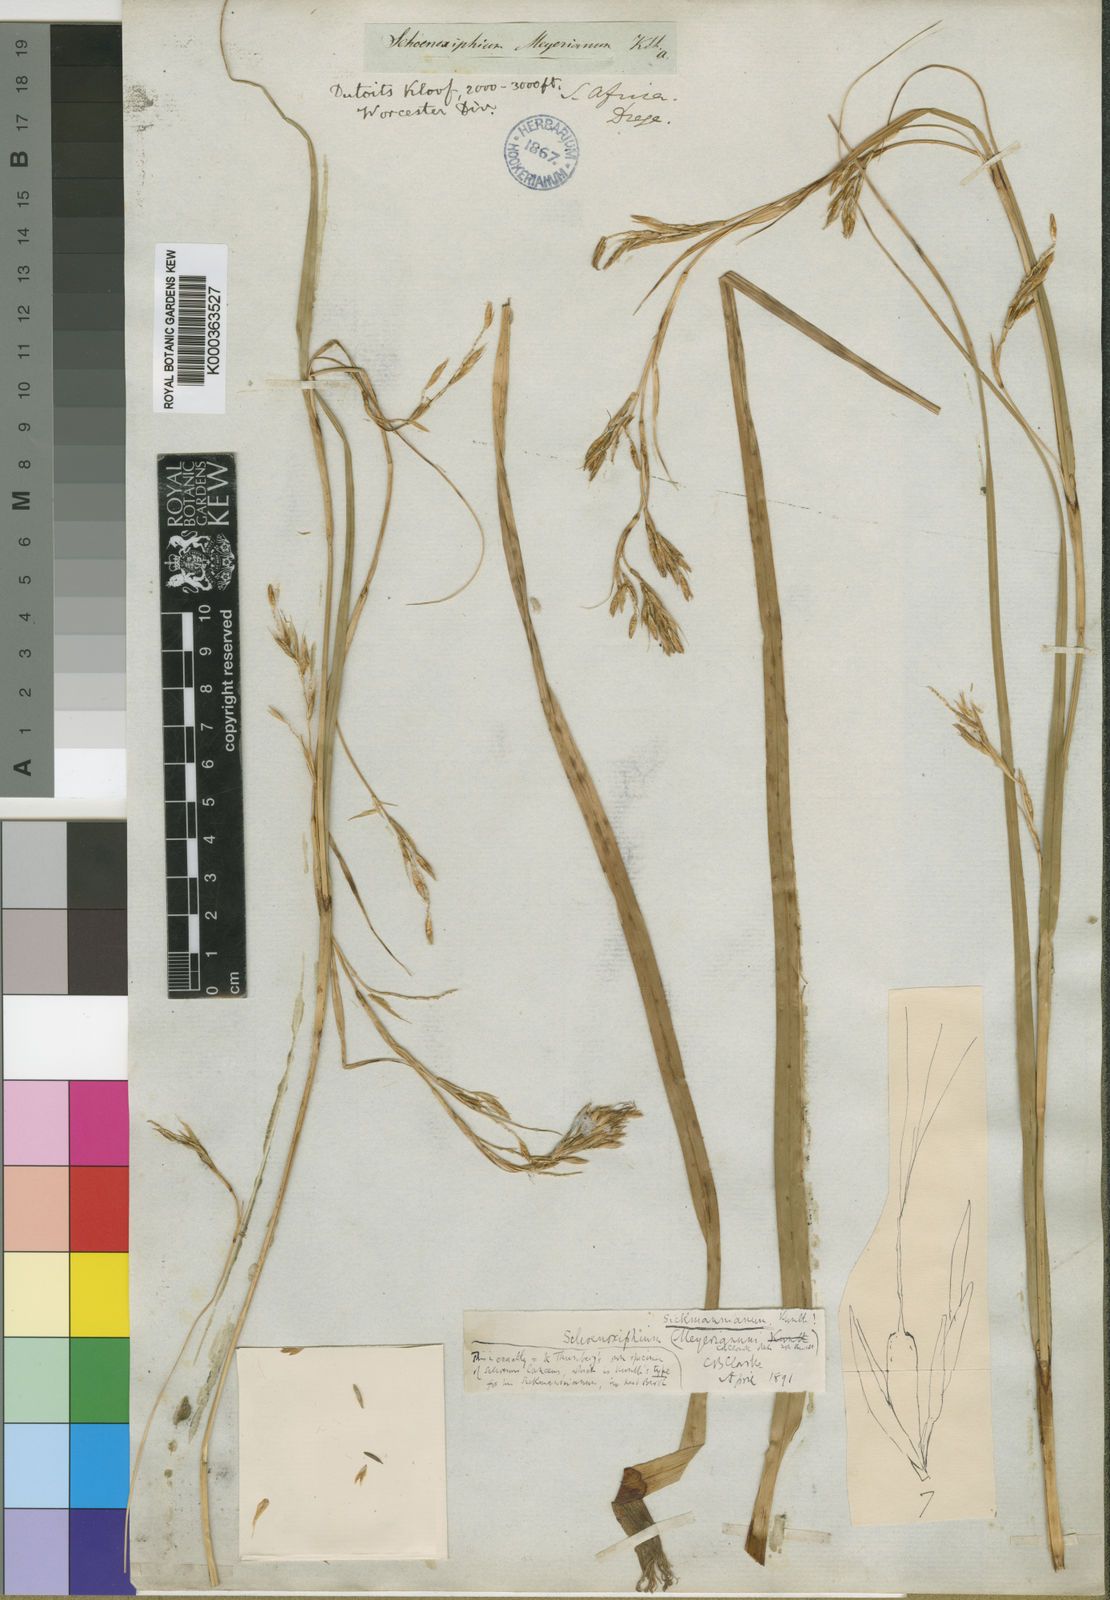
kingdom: Plantae
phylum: Tracheophyta
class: Liliopsida
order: Poales
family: Cyperaceae
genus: Carex
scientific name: Carex
